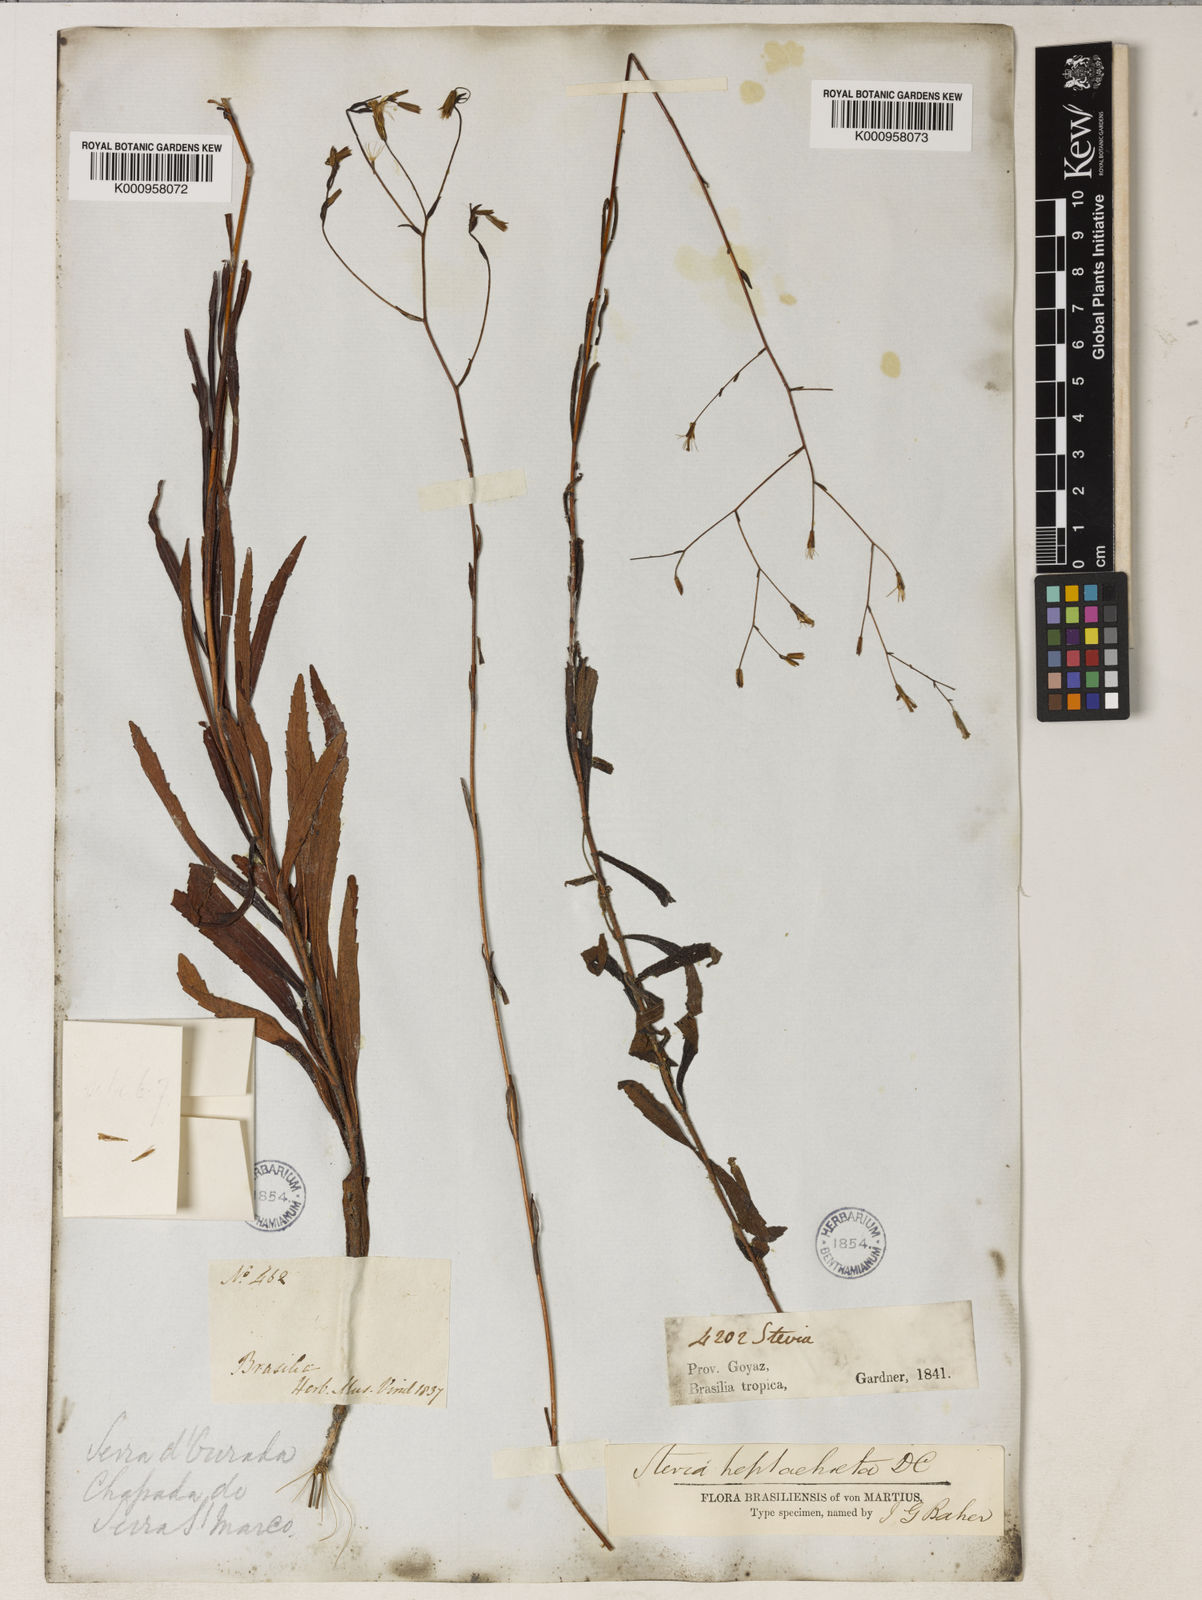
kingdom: Plantae
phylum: Tracheophyta
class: Magnoliopsida
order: Asterales
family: Asteraceae
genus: Stevia
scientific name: Stevia heptachaeta
